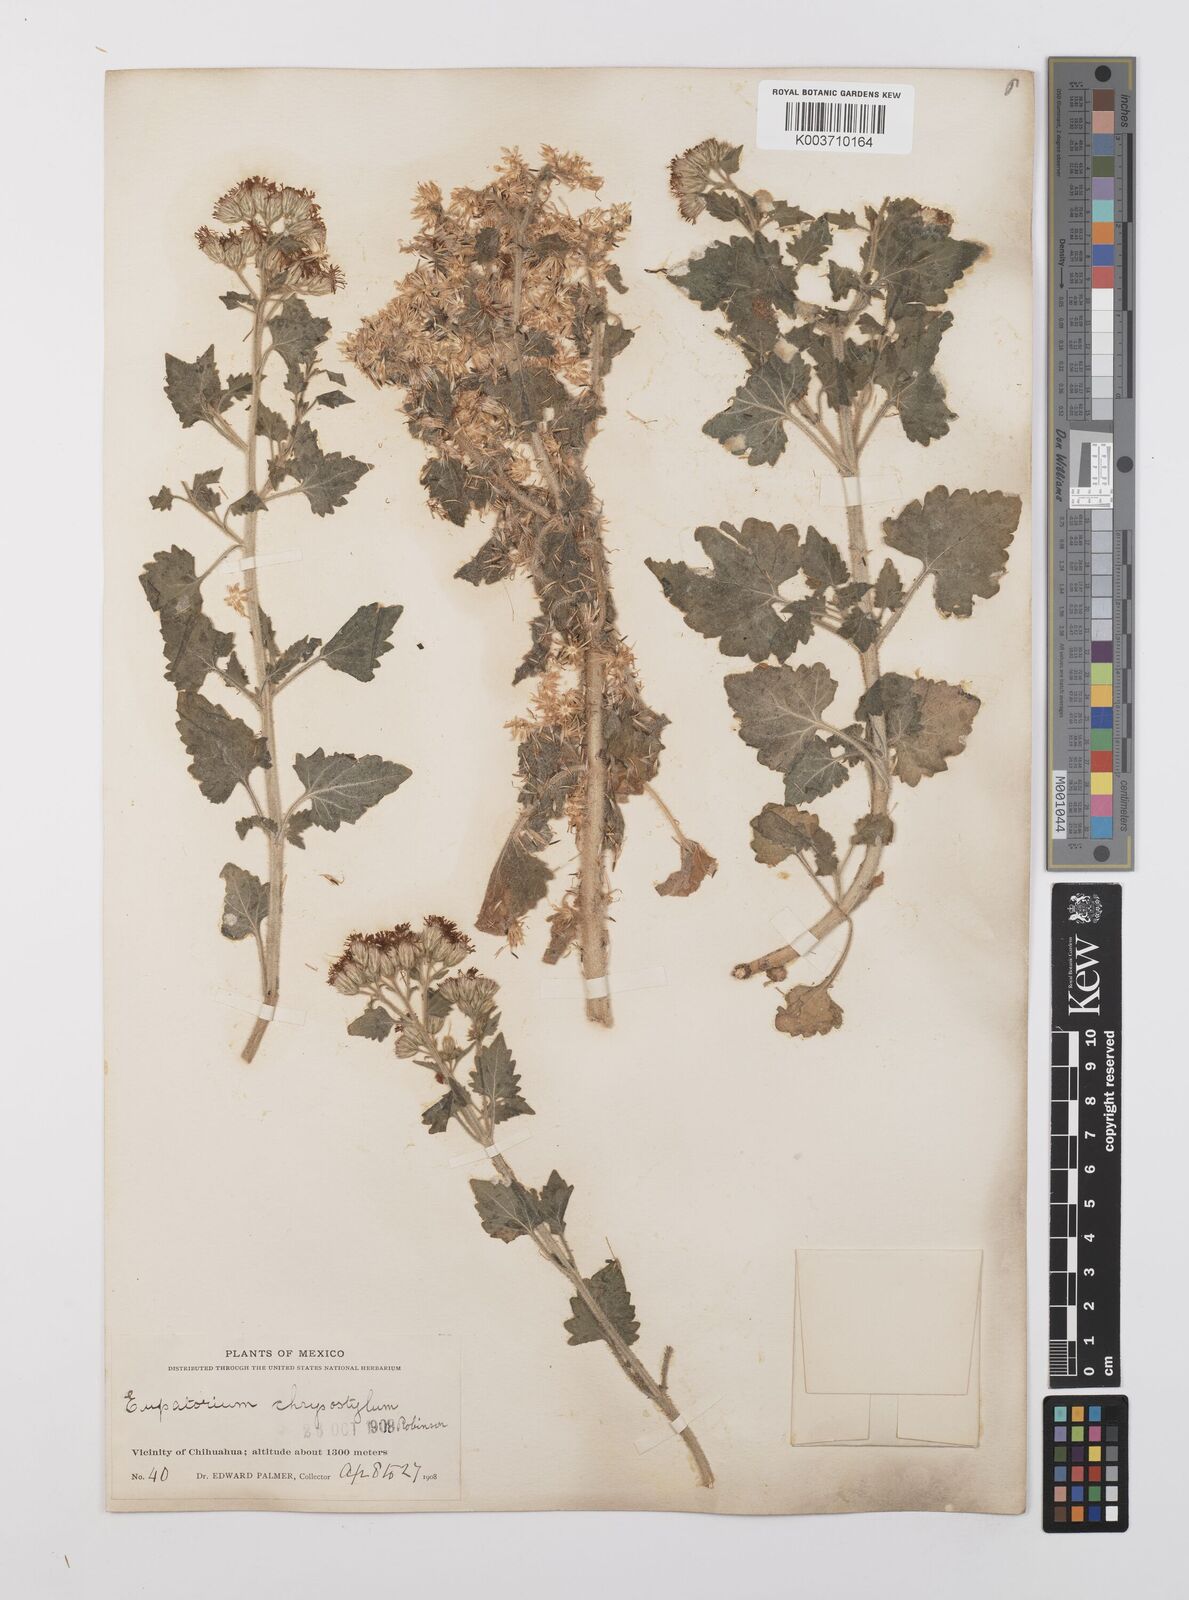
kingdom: Plantae
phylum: Tracheophyta
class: Magnoliopsida
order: Asterales
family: Asteraceae
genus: Flyriella
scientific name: Flyriella parryi
